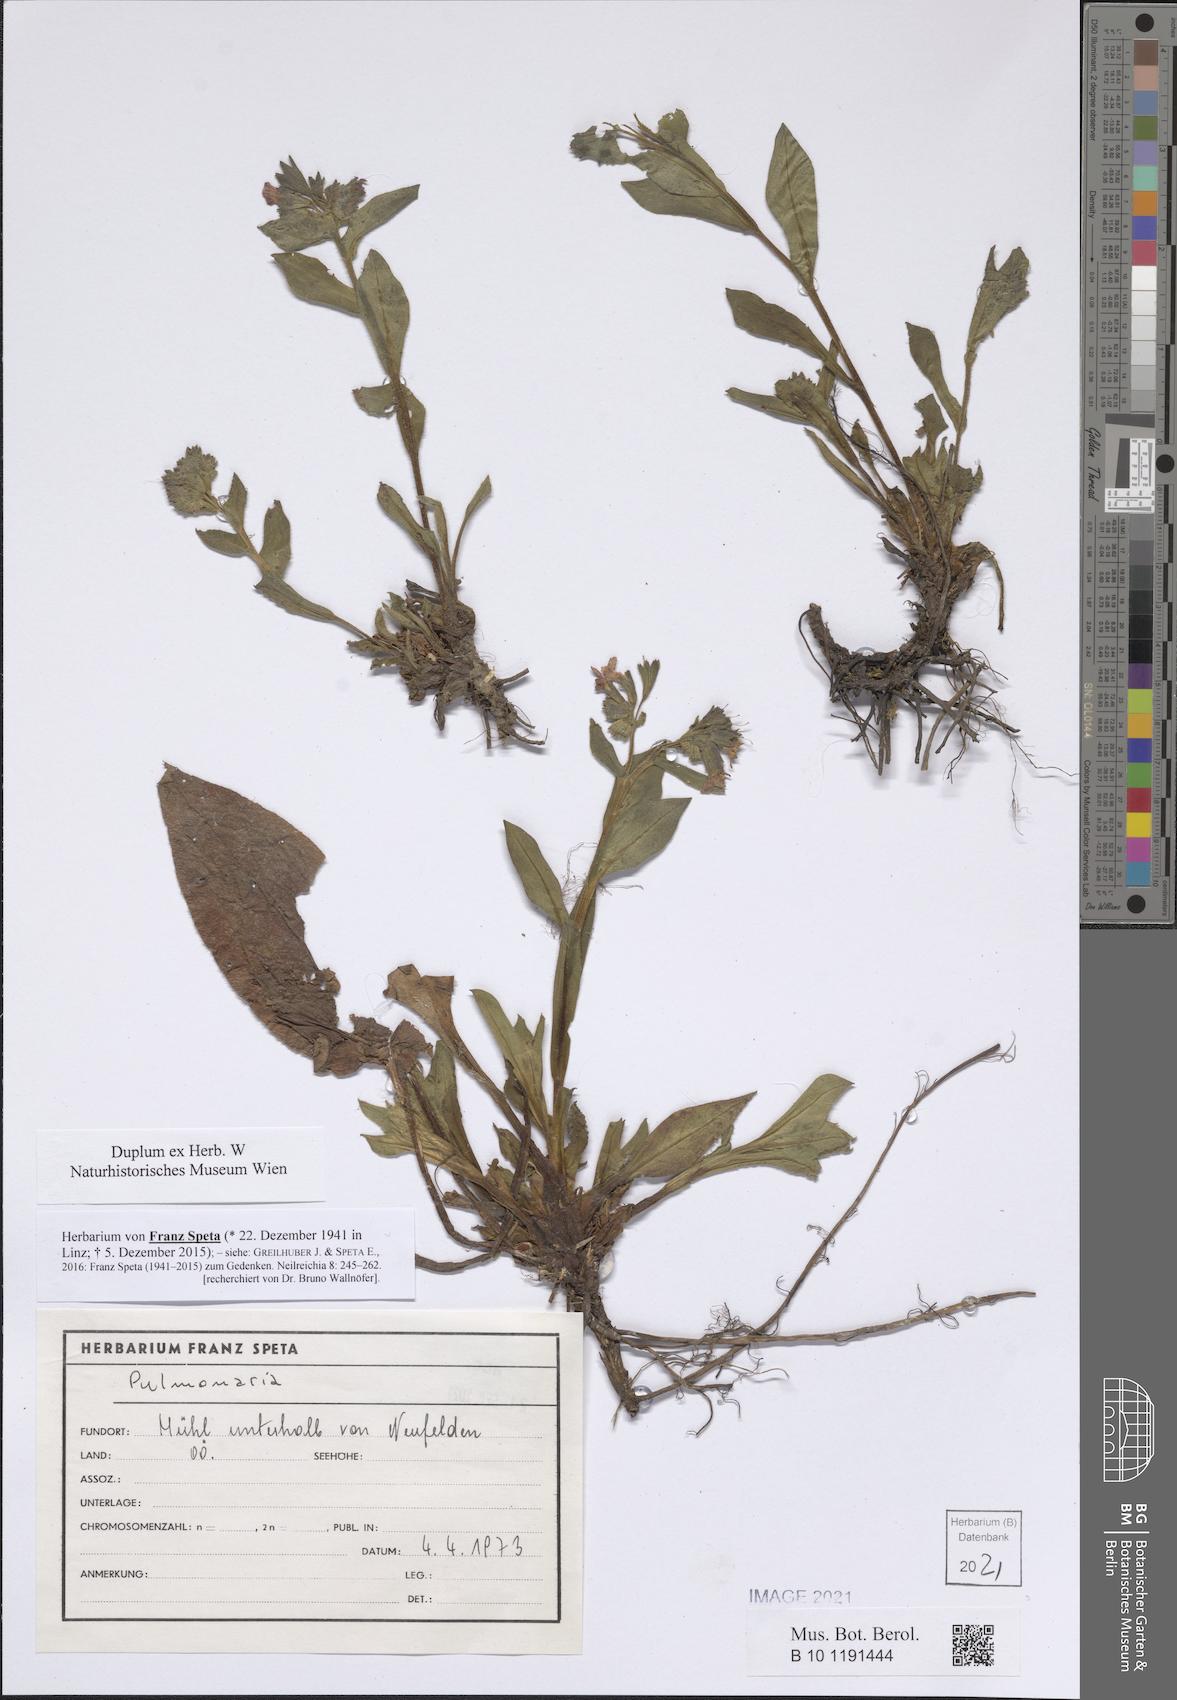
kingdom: Plantae
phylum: Tracheophyta
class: Magnoliopsida
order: Boraginales
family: Boraginaceae
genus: Pulmonaria
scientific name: Pulmonaria
